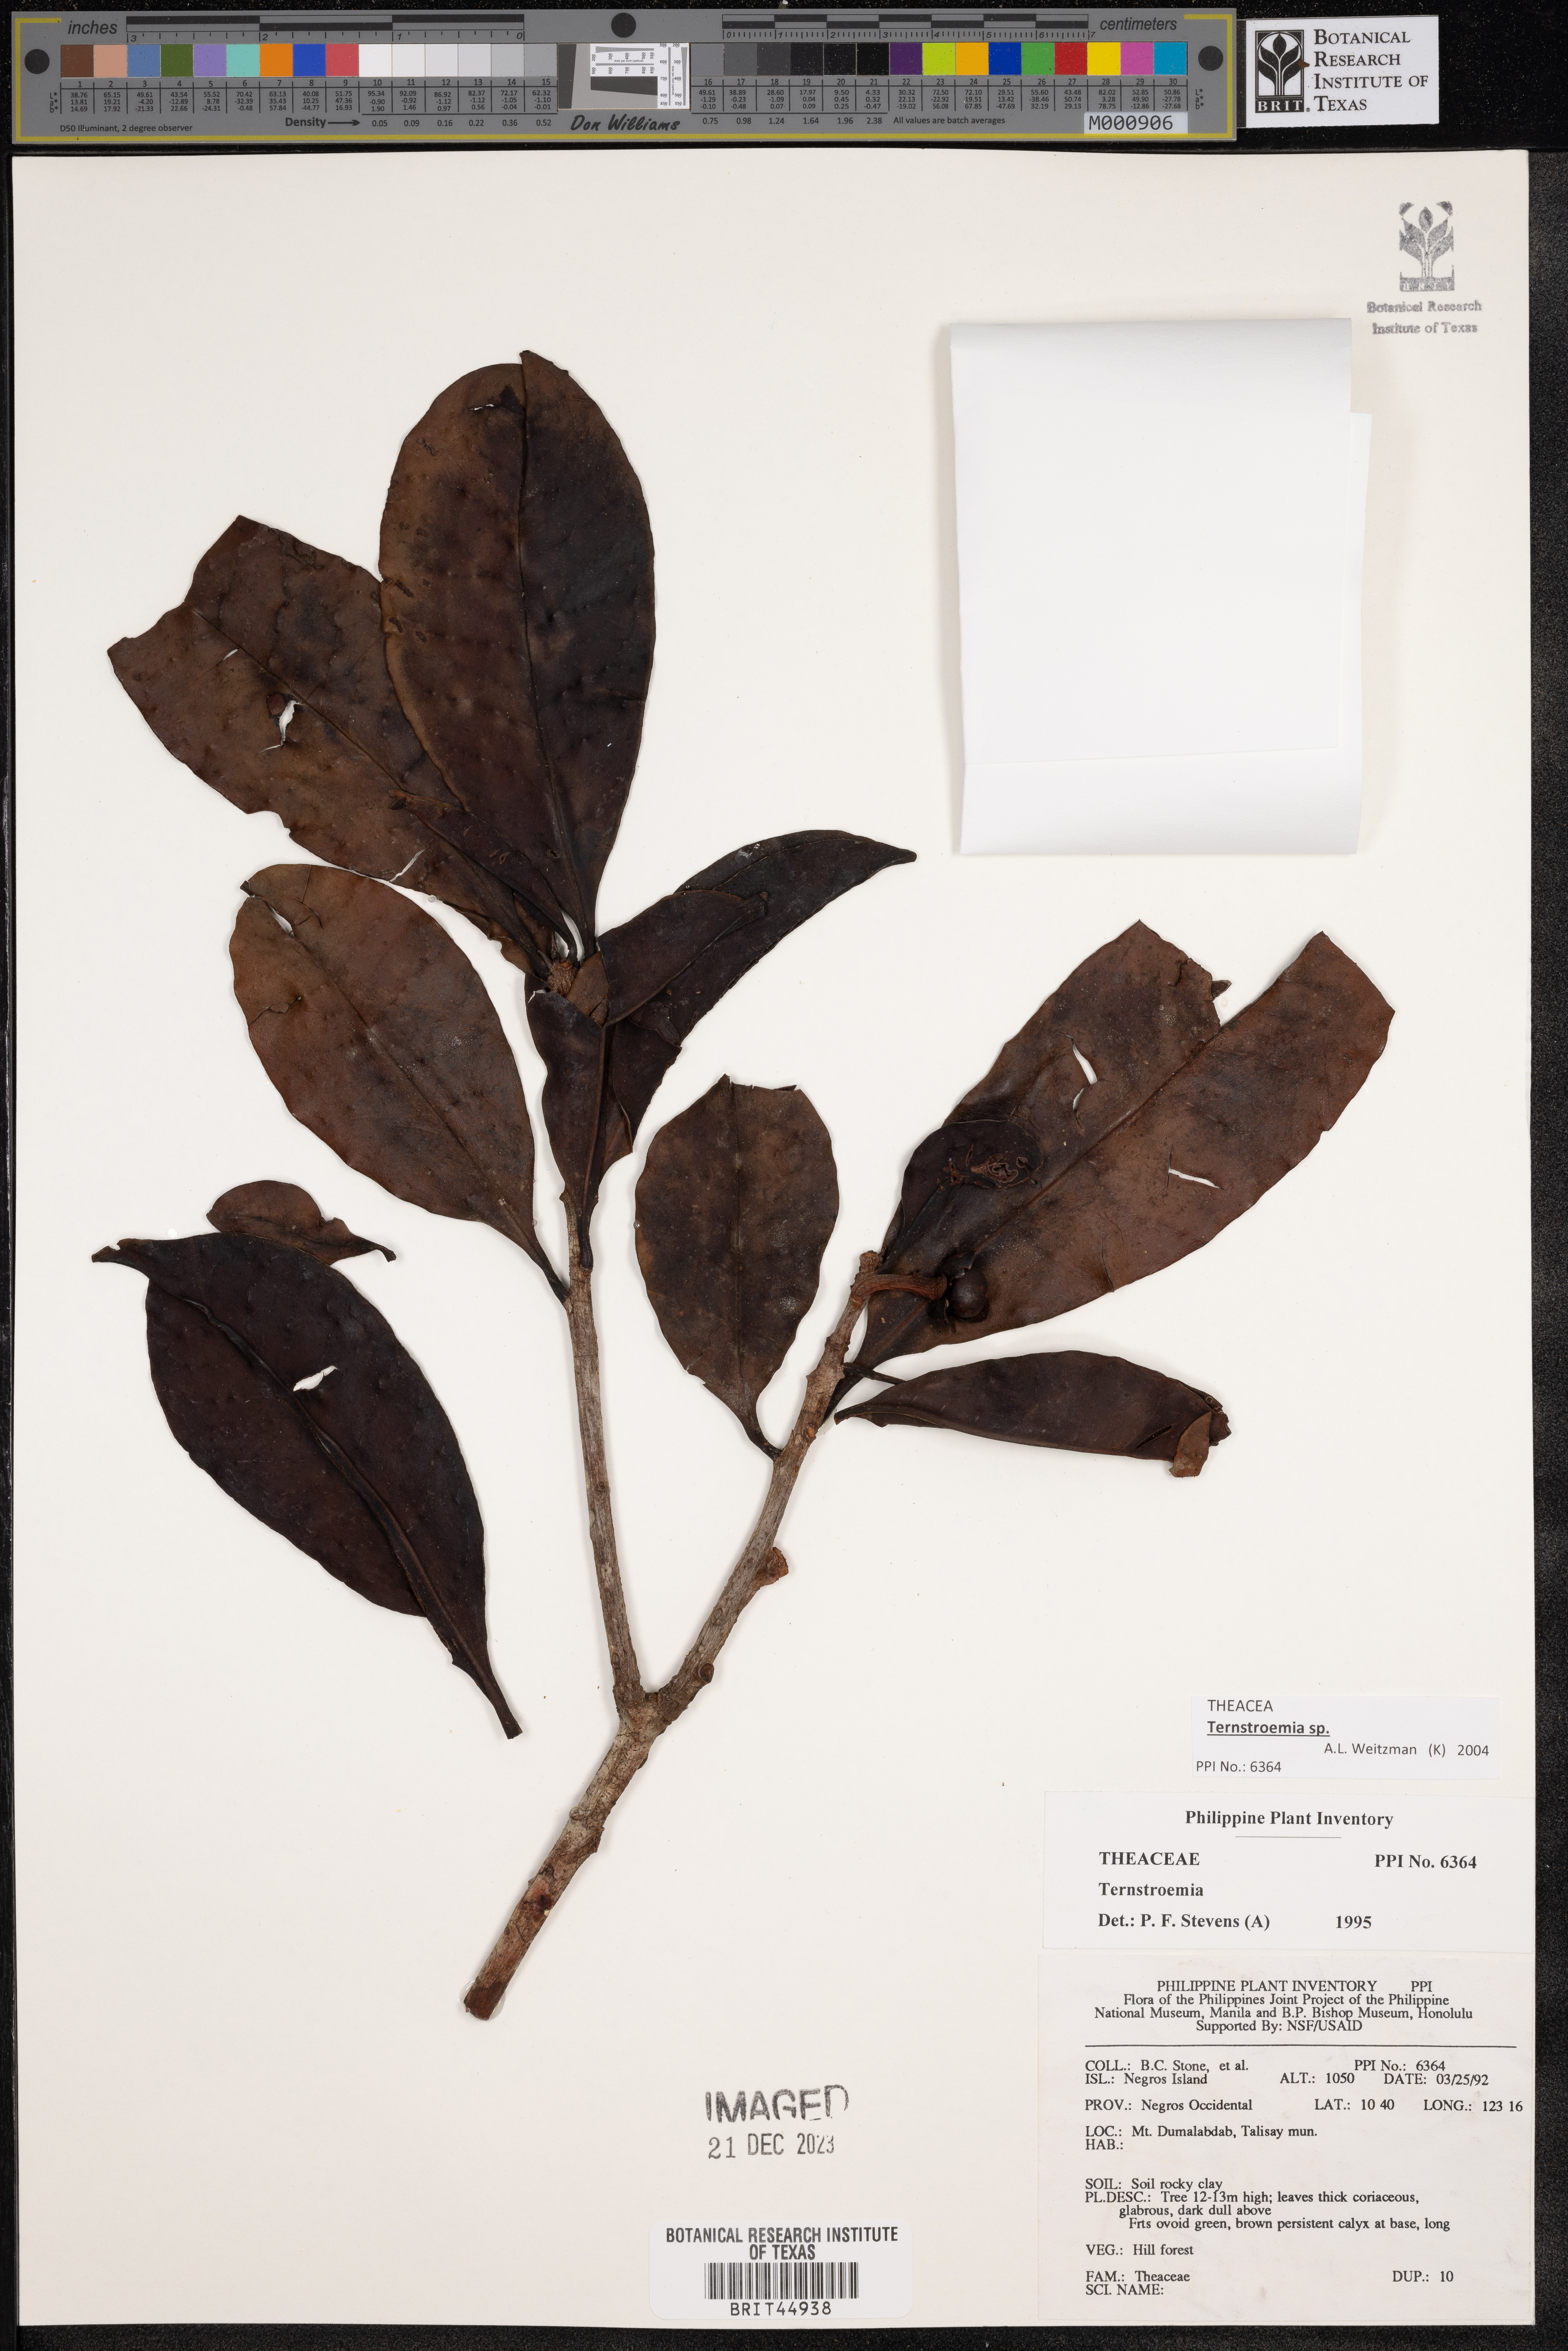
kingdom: Plantae
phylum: Tracheophyta
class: Magnoliopsida
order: Ericales
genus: Ternstroemia
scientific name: Ternstroemia
